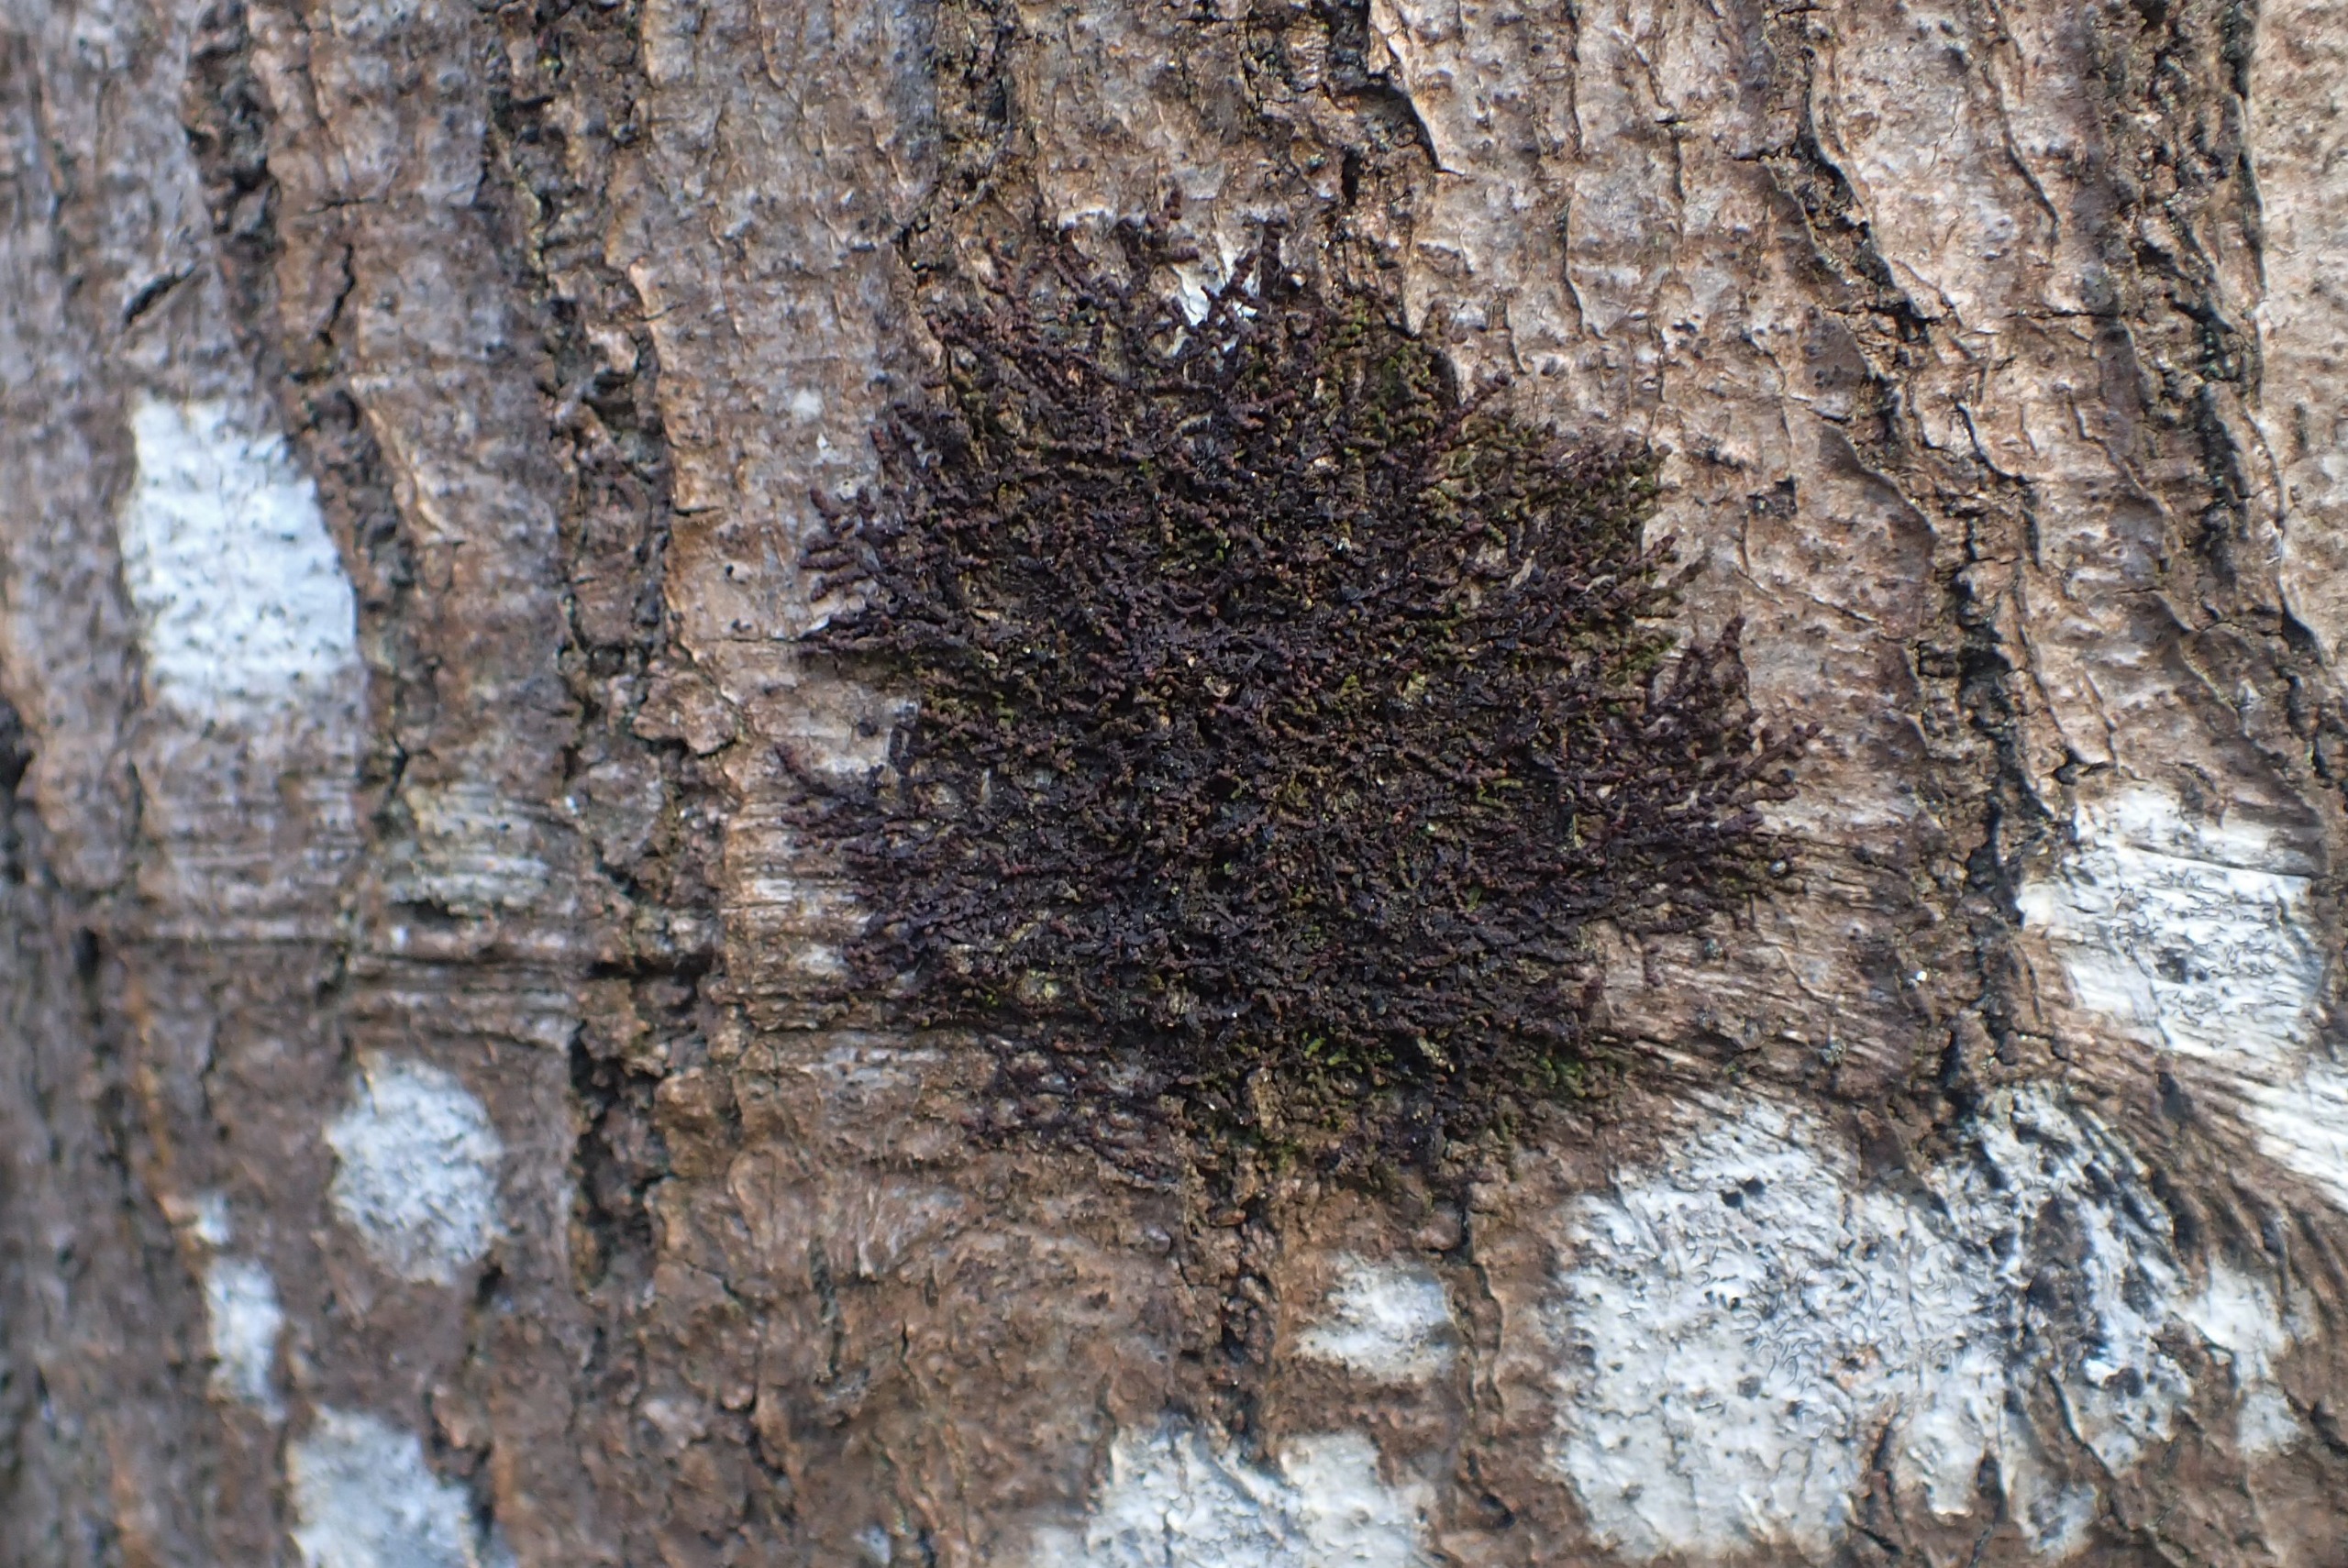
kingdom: Plantae
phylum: Marchantiophyta
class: Jungermanniopsida
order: Porellales
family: Frullaniaceae
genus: Frullania
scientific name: Frullania dilatata
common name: Mat bronzemos
